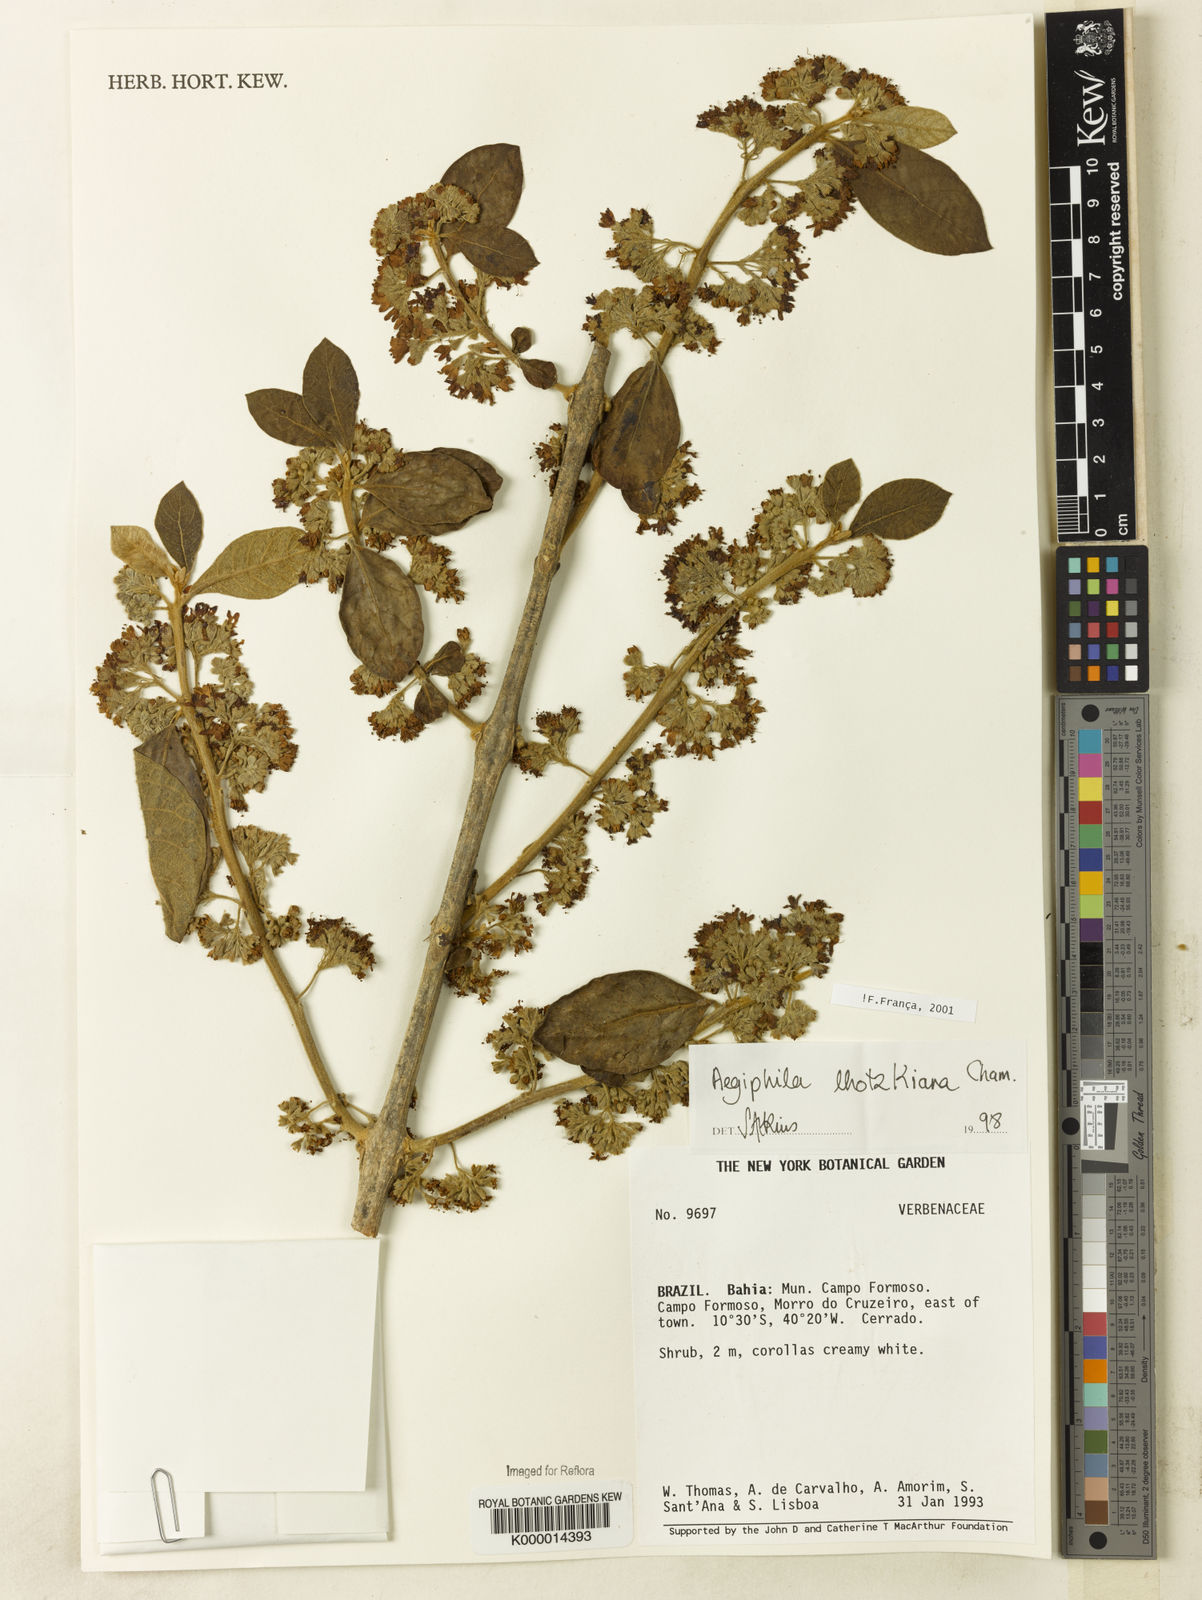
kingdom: Plantae
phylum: Tracheophyta
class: Magnoliopsida
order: Lamiales
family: Lamiaceae
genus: Aegiphila
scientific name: Aegiphila verticillata
